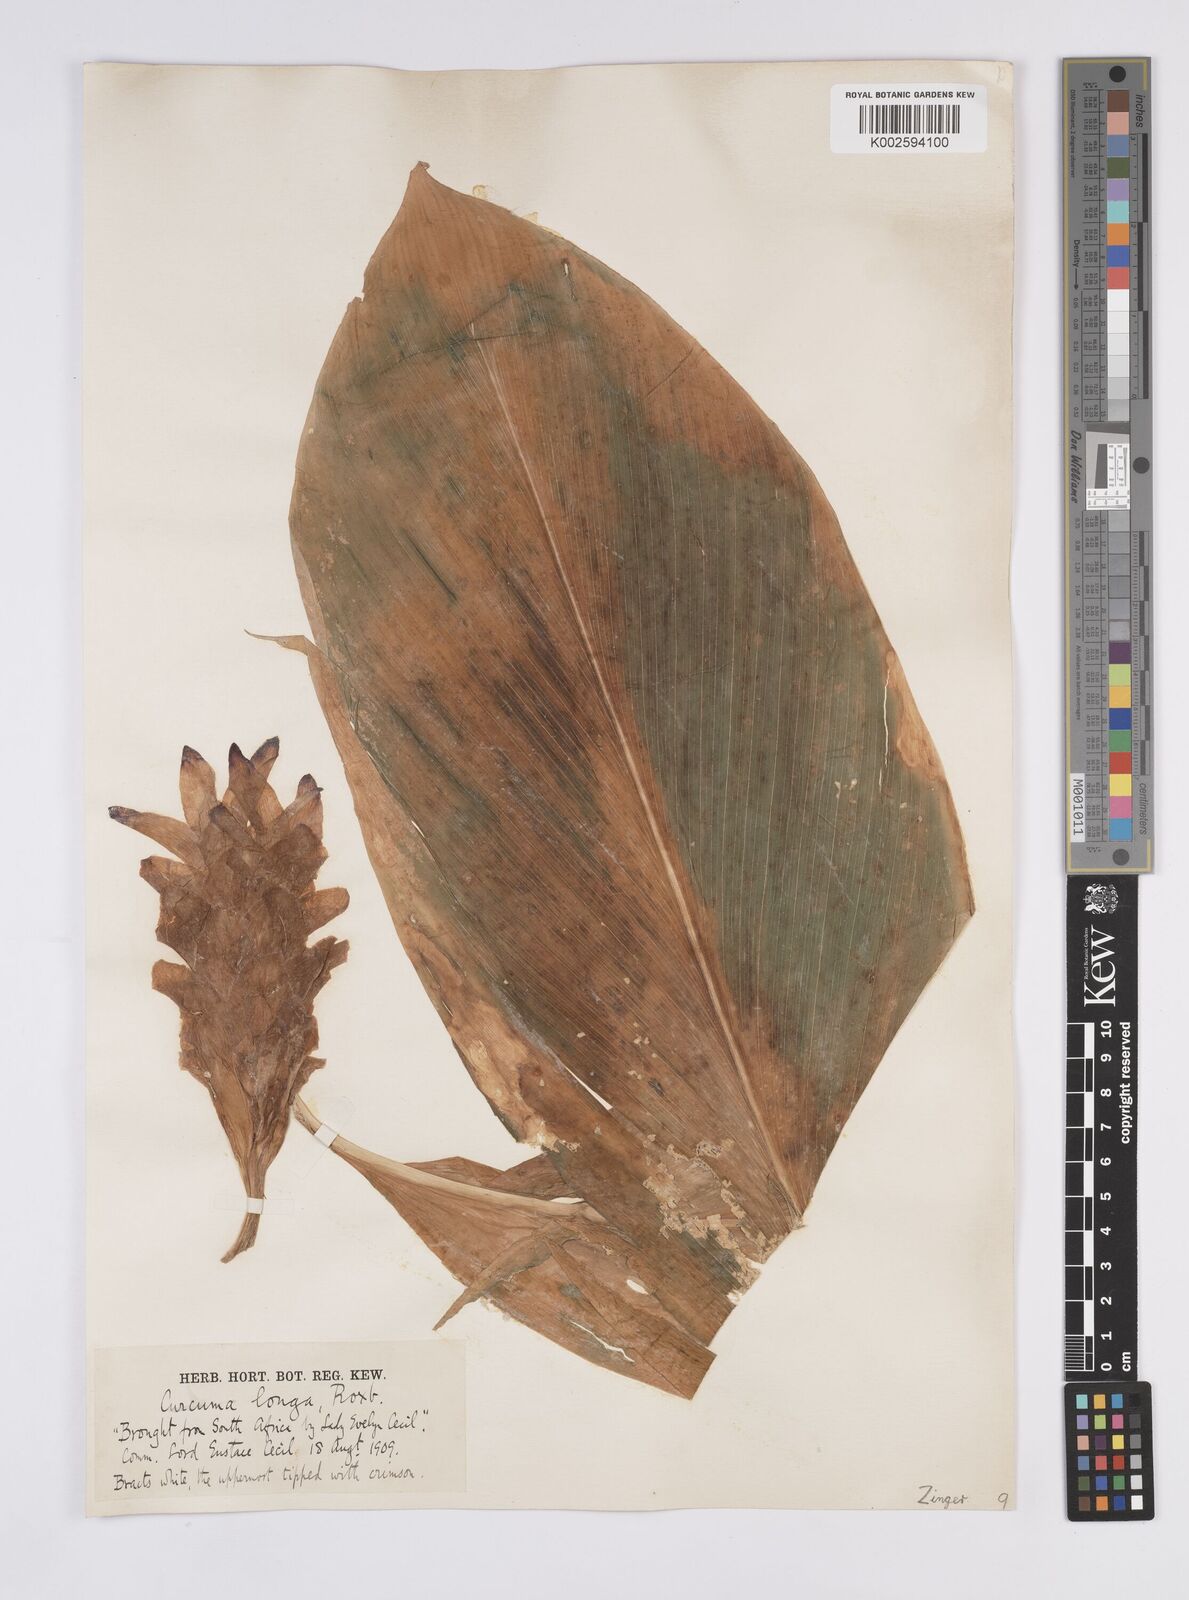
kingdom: Plantae
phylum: Tracheophyta
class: Liliopsida
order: Zingiberales
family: Zingiberaceae
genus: Curcuma
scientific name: Curcuma
